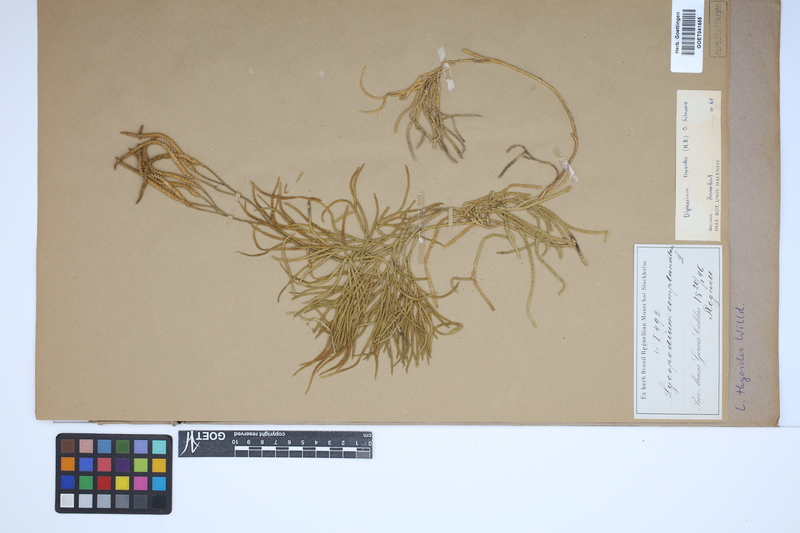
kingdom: Plantae
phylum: Tracheophyta
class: Lycopodiopsida
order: Lycopodiales
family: Lycopodiaceae
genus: Diphasiastrum
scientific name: Diphasiastrum thyoides
